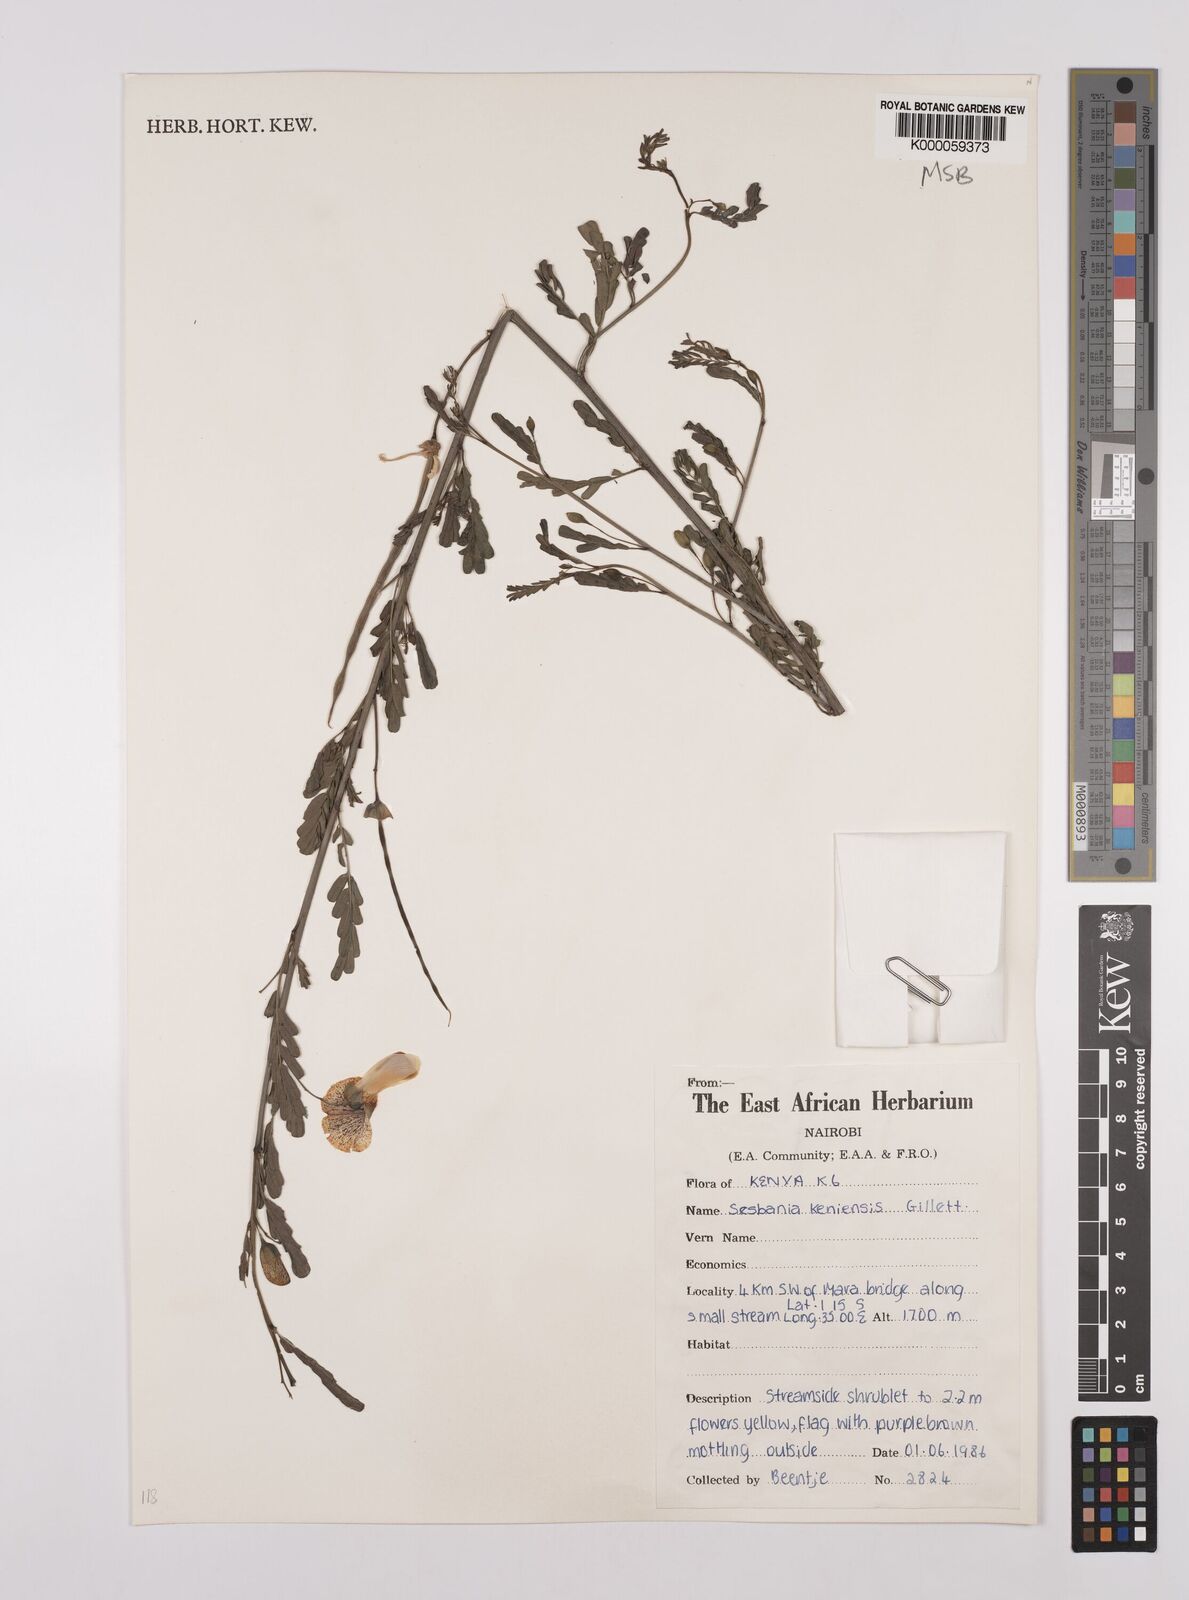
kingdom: Plantae
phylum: Tracheophyta
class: Magnoliopsida
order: Fabales
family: Fabaceae
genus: Sesbania
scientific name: Sesbania keniensis
